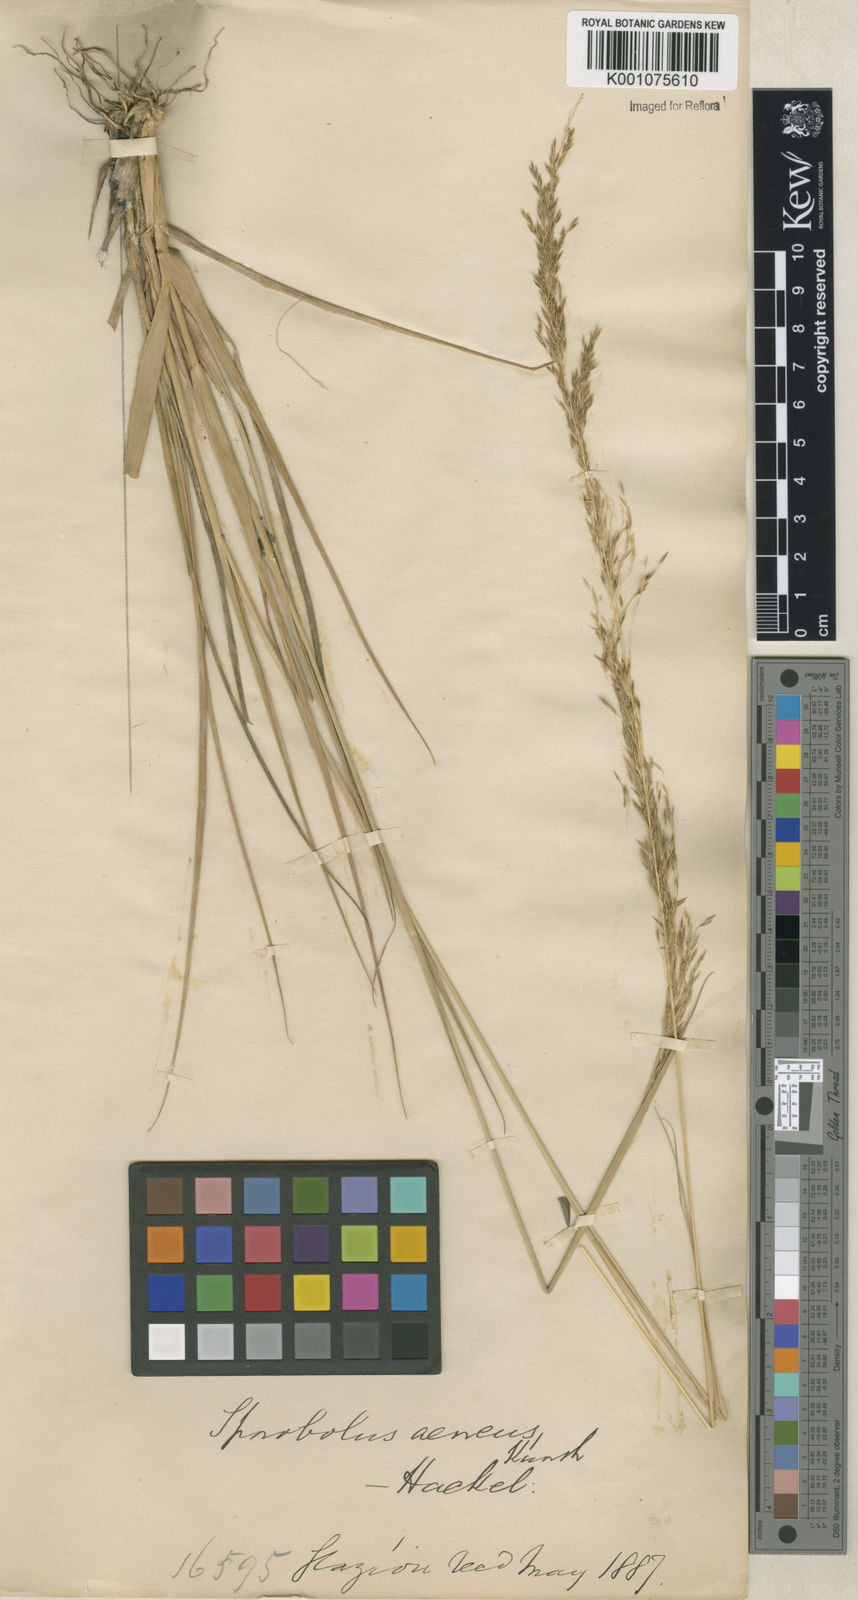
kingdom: Plantae
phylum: Tracheophyta
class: Liliopsida
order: Poales
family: Poaceae
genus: Sporobolus
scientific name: Sporobolus
